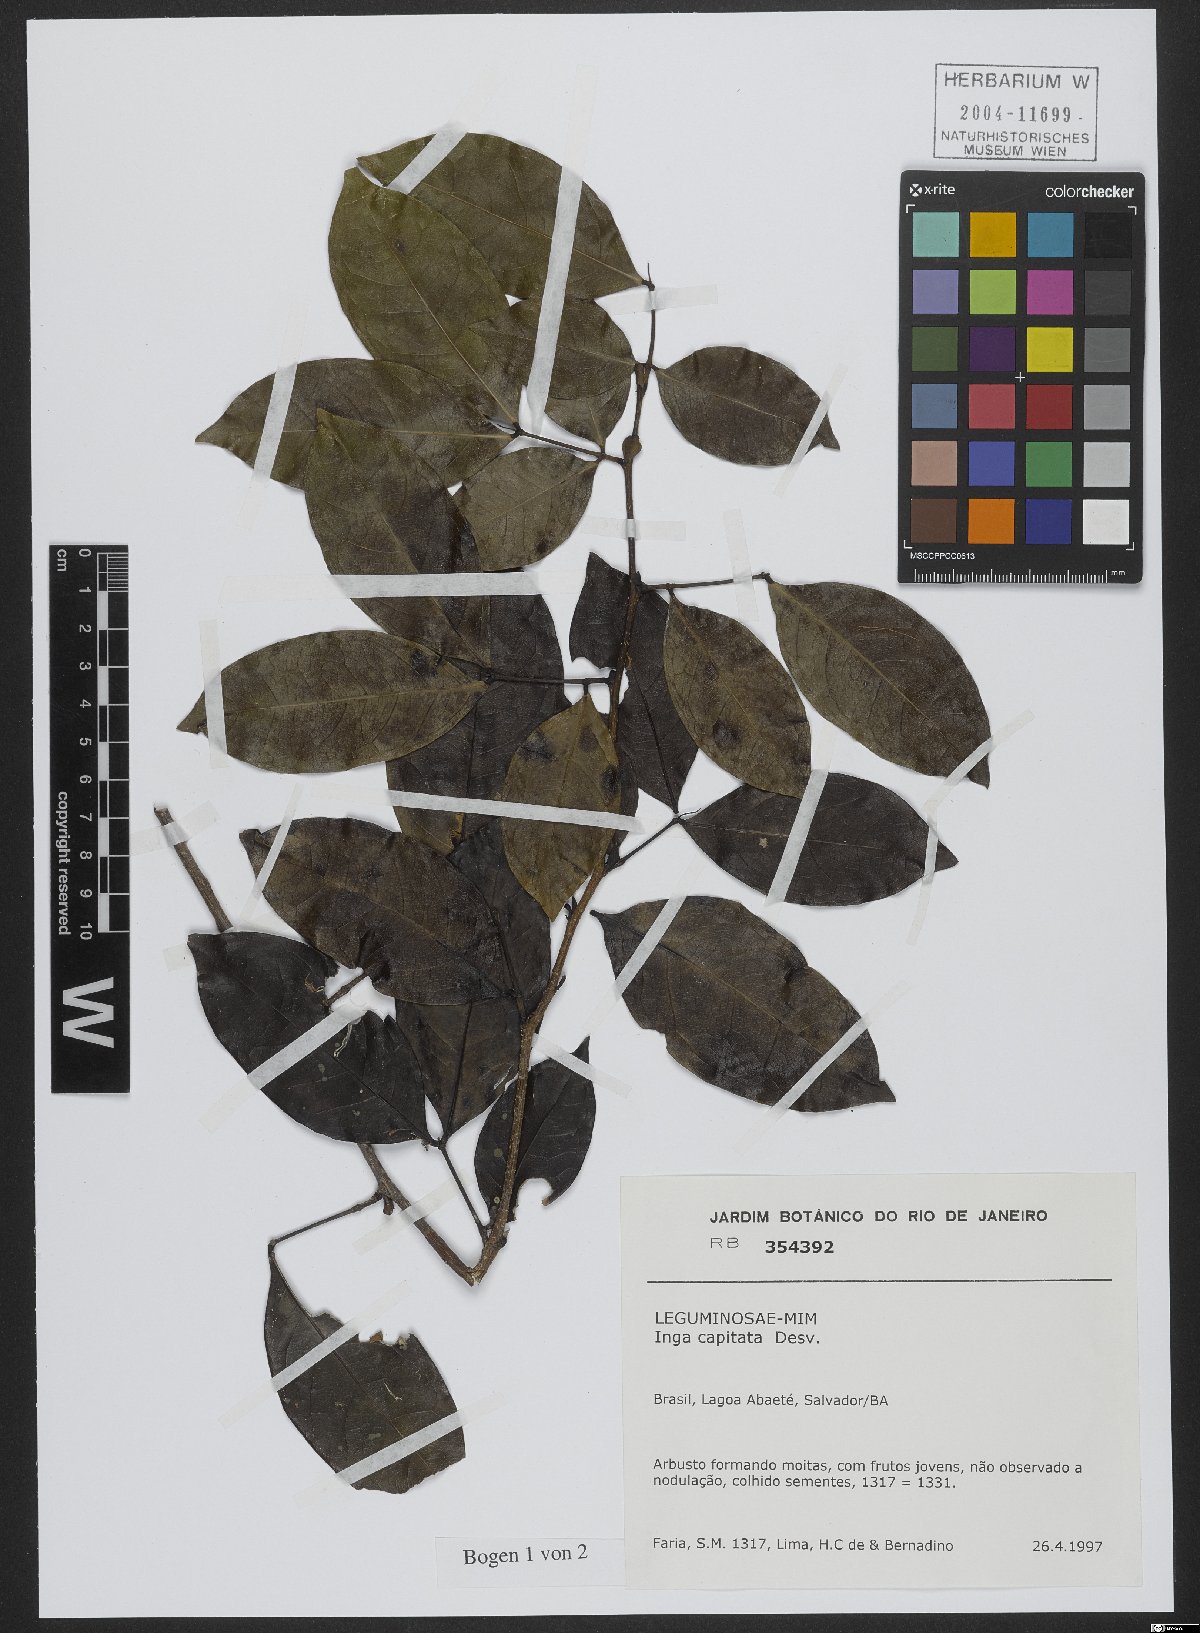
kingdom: Plantae
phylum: Tracheophyta
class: Magnoliopsida
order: Fabales
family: Fabaceae
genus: Inga
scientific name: Inga capitata
